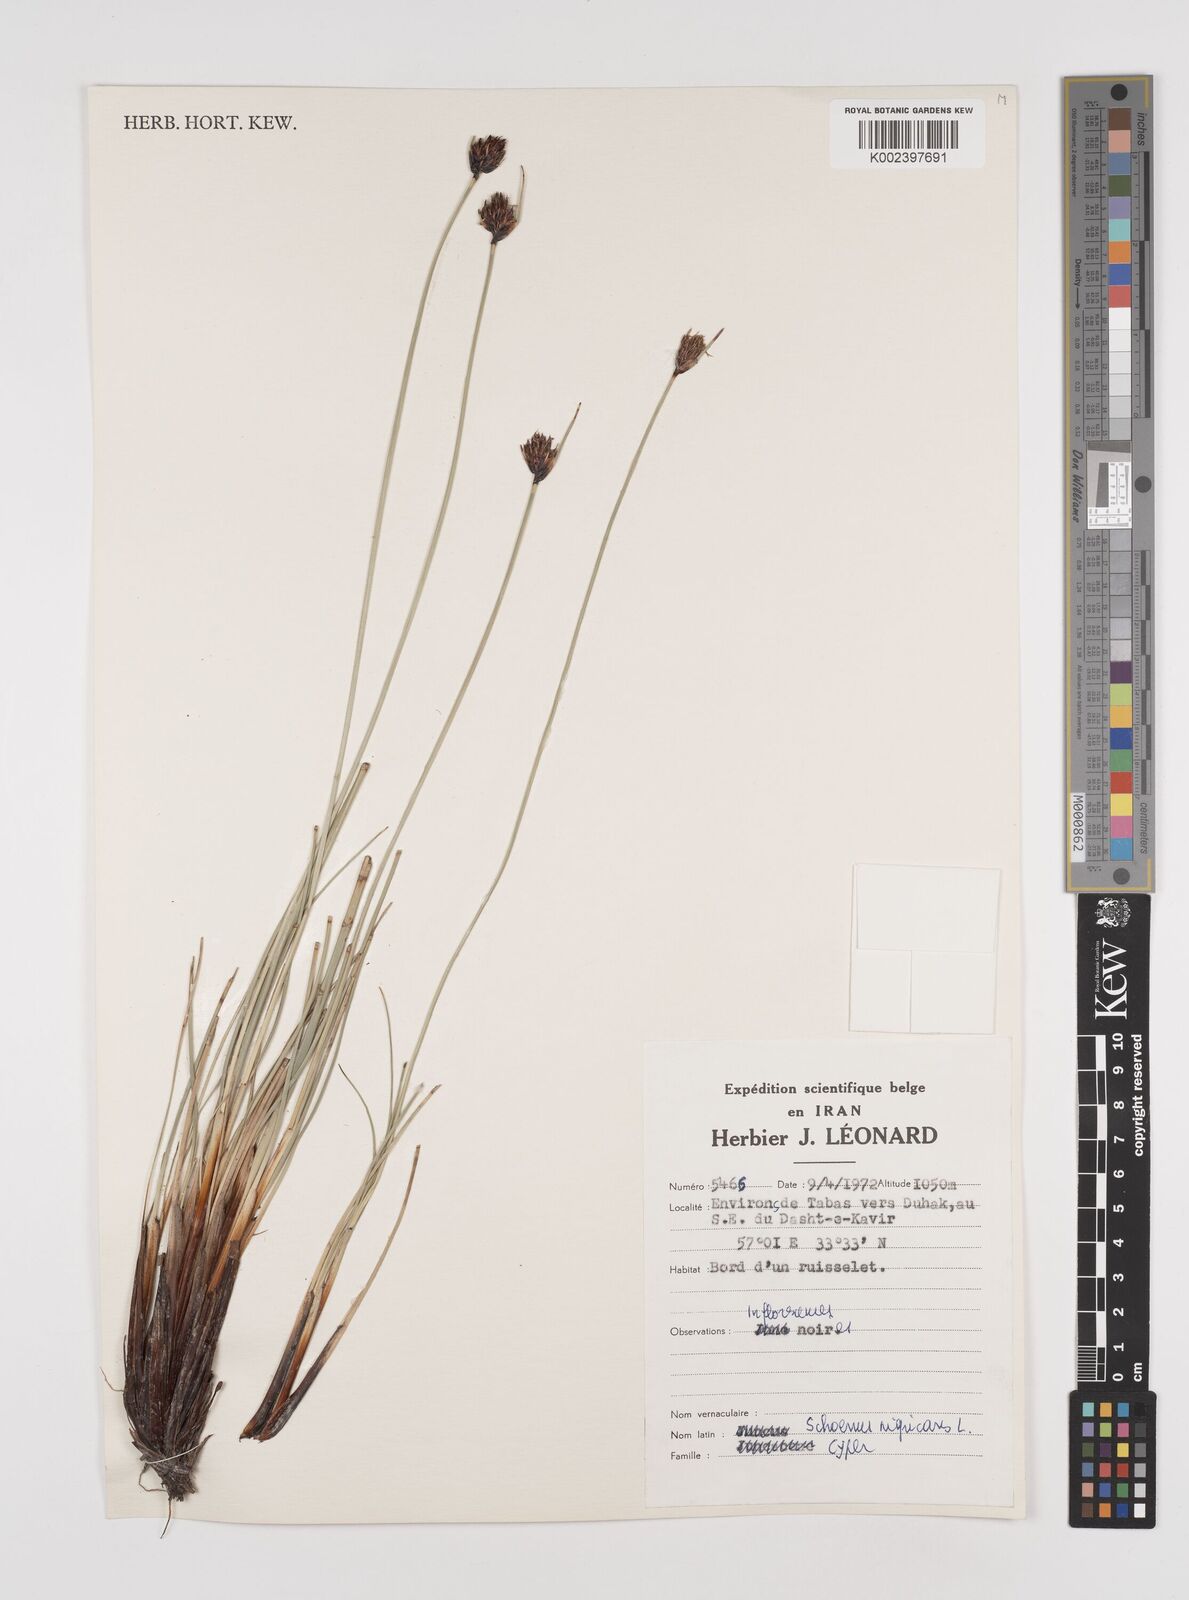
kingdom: Plantae
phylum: Tracheophyta
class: Liliopsida
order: Poales
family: Cyperaceae
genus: Schoenus
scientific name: Schoenus nigricans
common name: Black bog-rush
